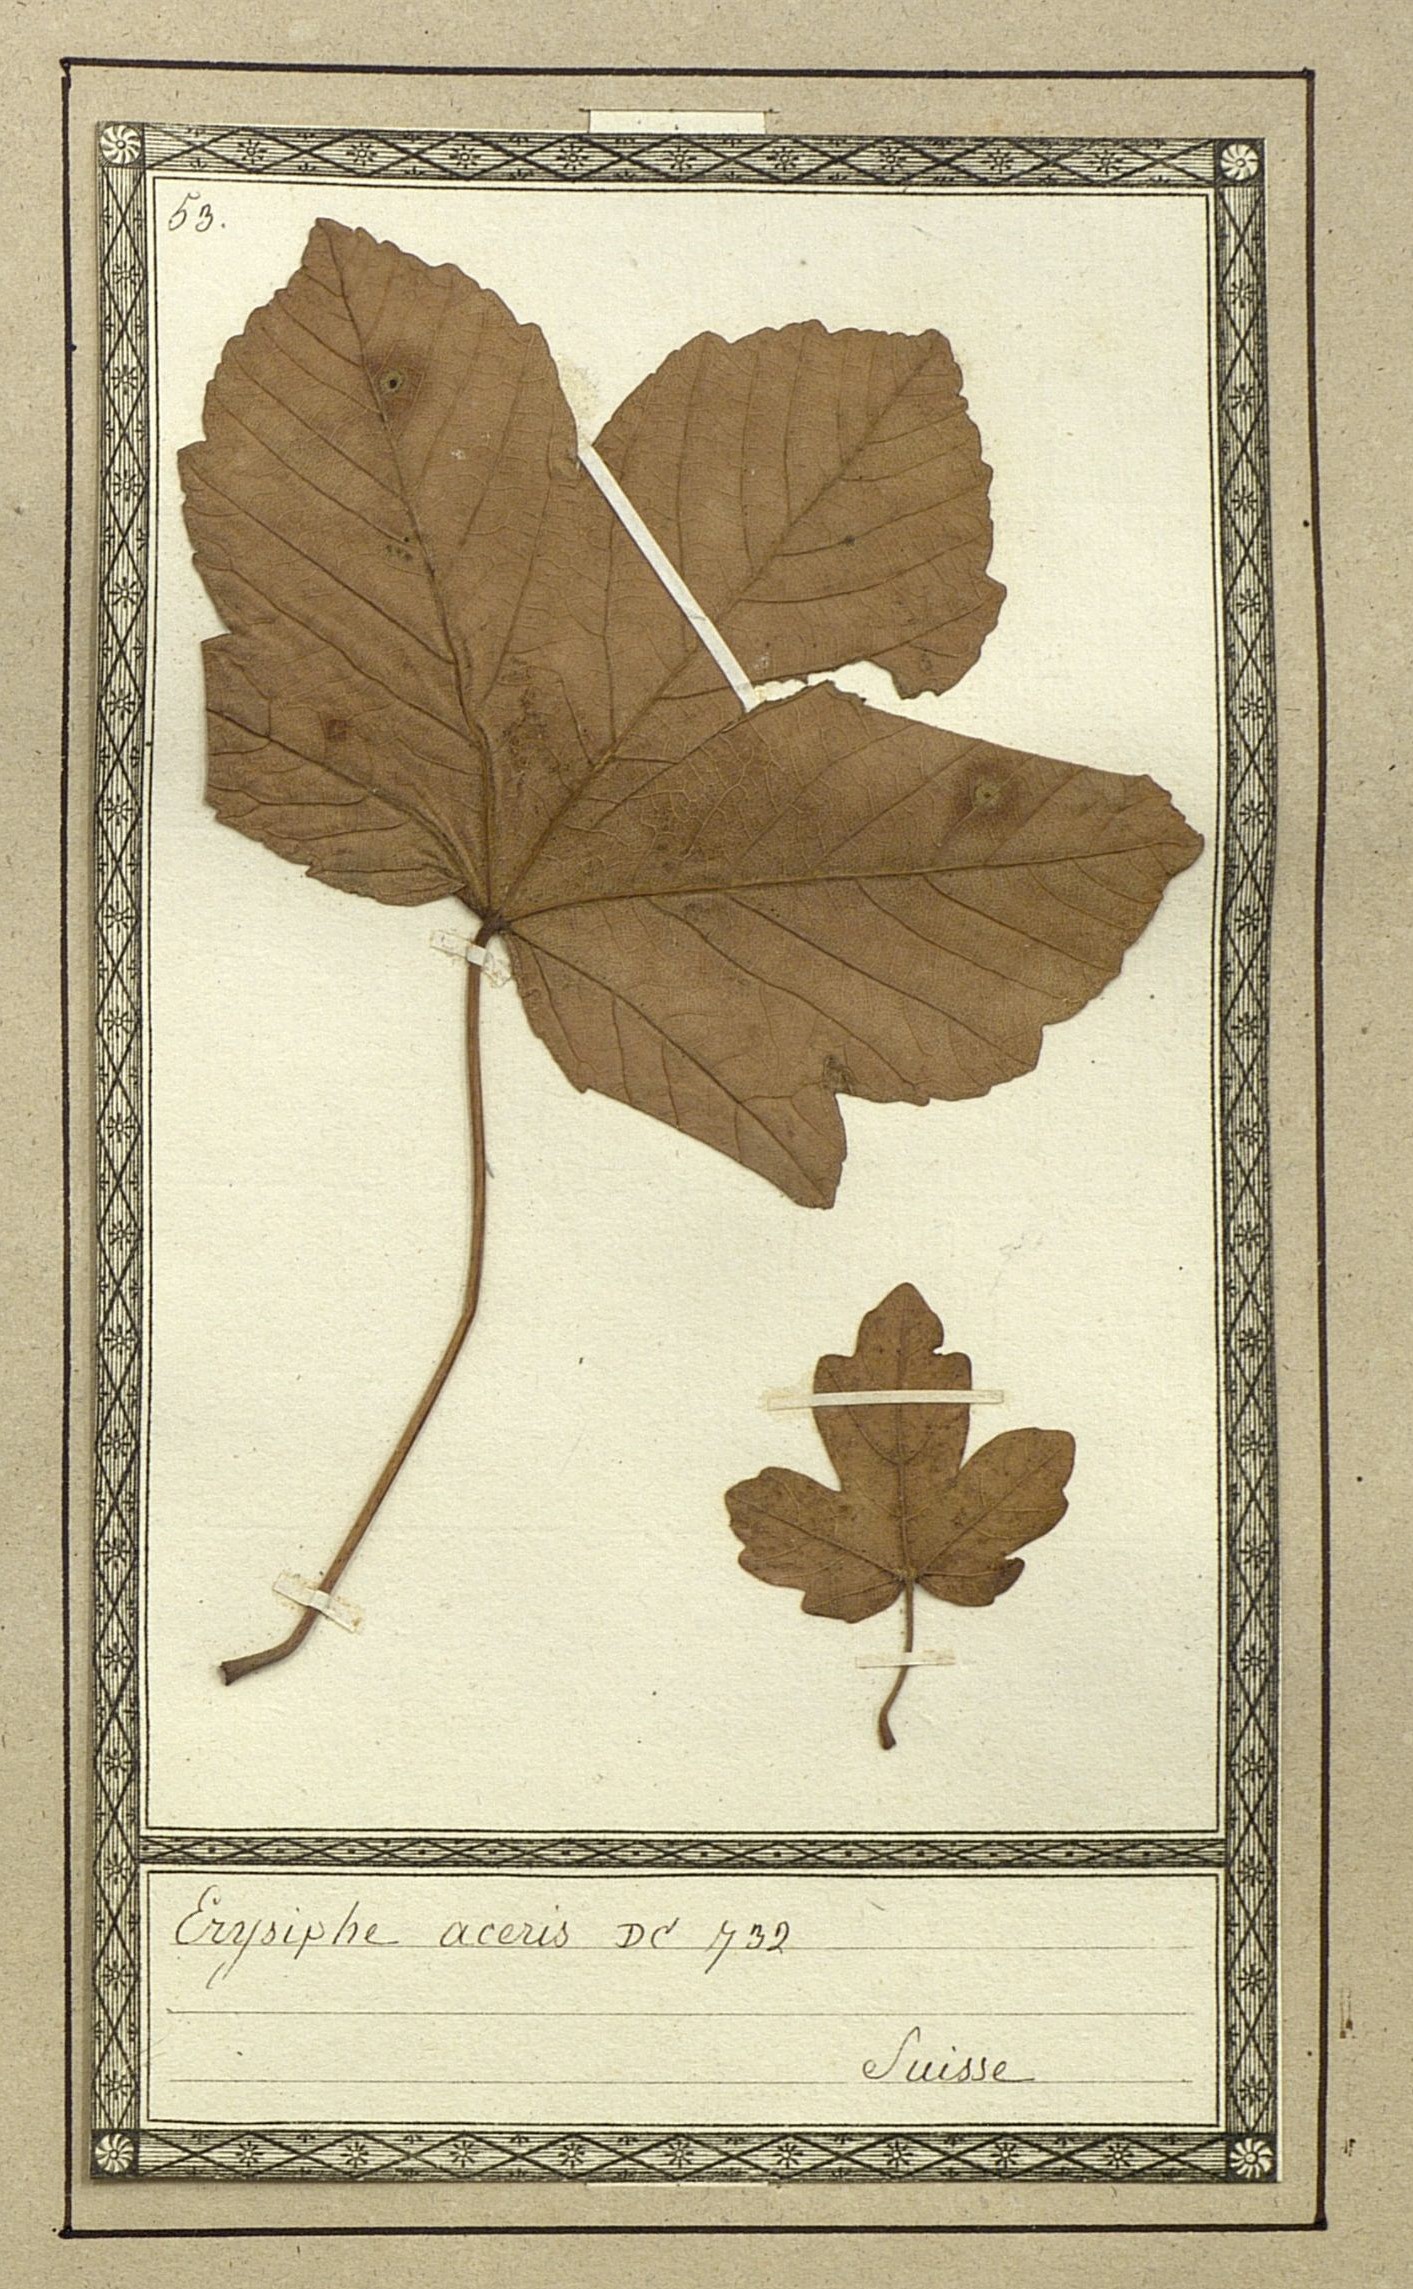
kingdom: Fungi
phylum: Ascomycota
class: Leotiomycetes
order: Helotiales
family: Erysiphaceae
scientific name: Erysiphaceae
